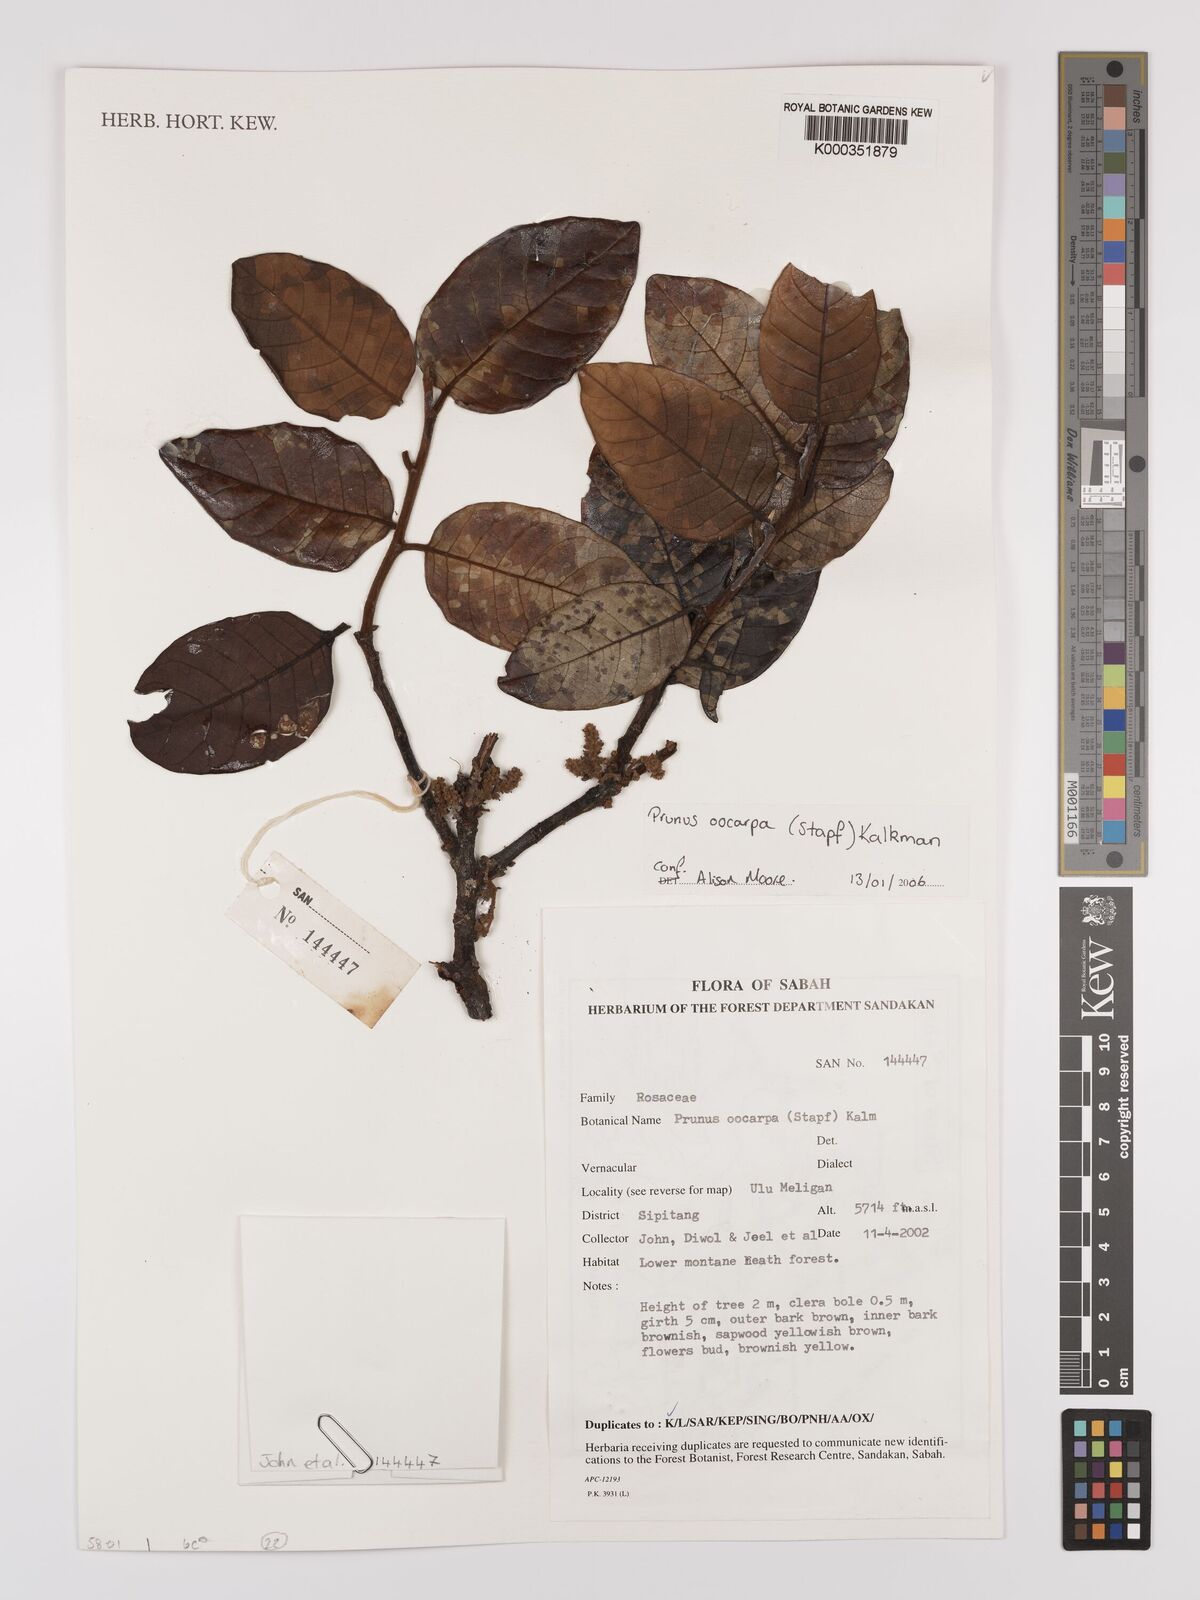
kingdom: Plantae
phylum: Tracheophyta
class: Magnoliopsida
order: Rosales
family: Rosaceae
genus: Prunus
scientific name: Prunus oocarpa
